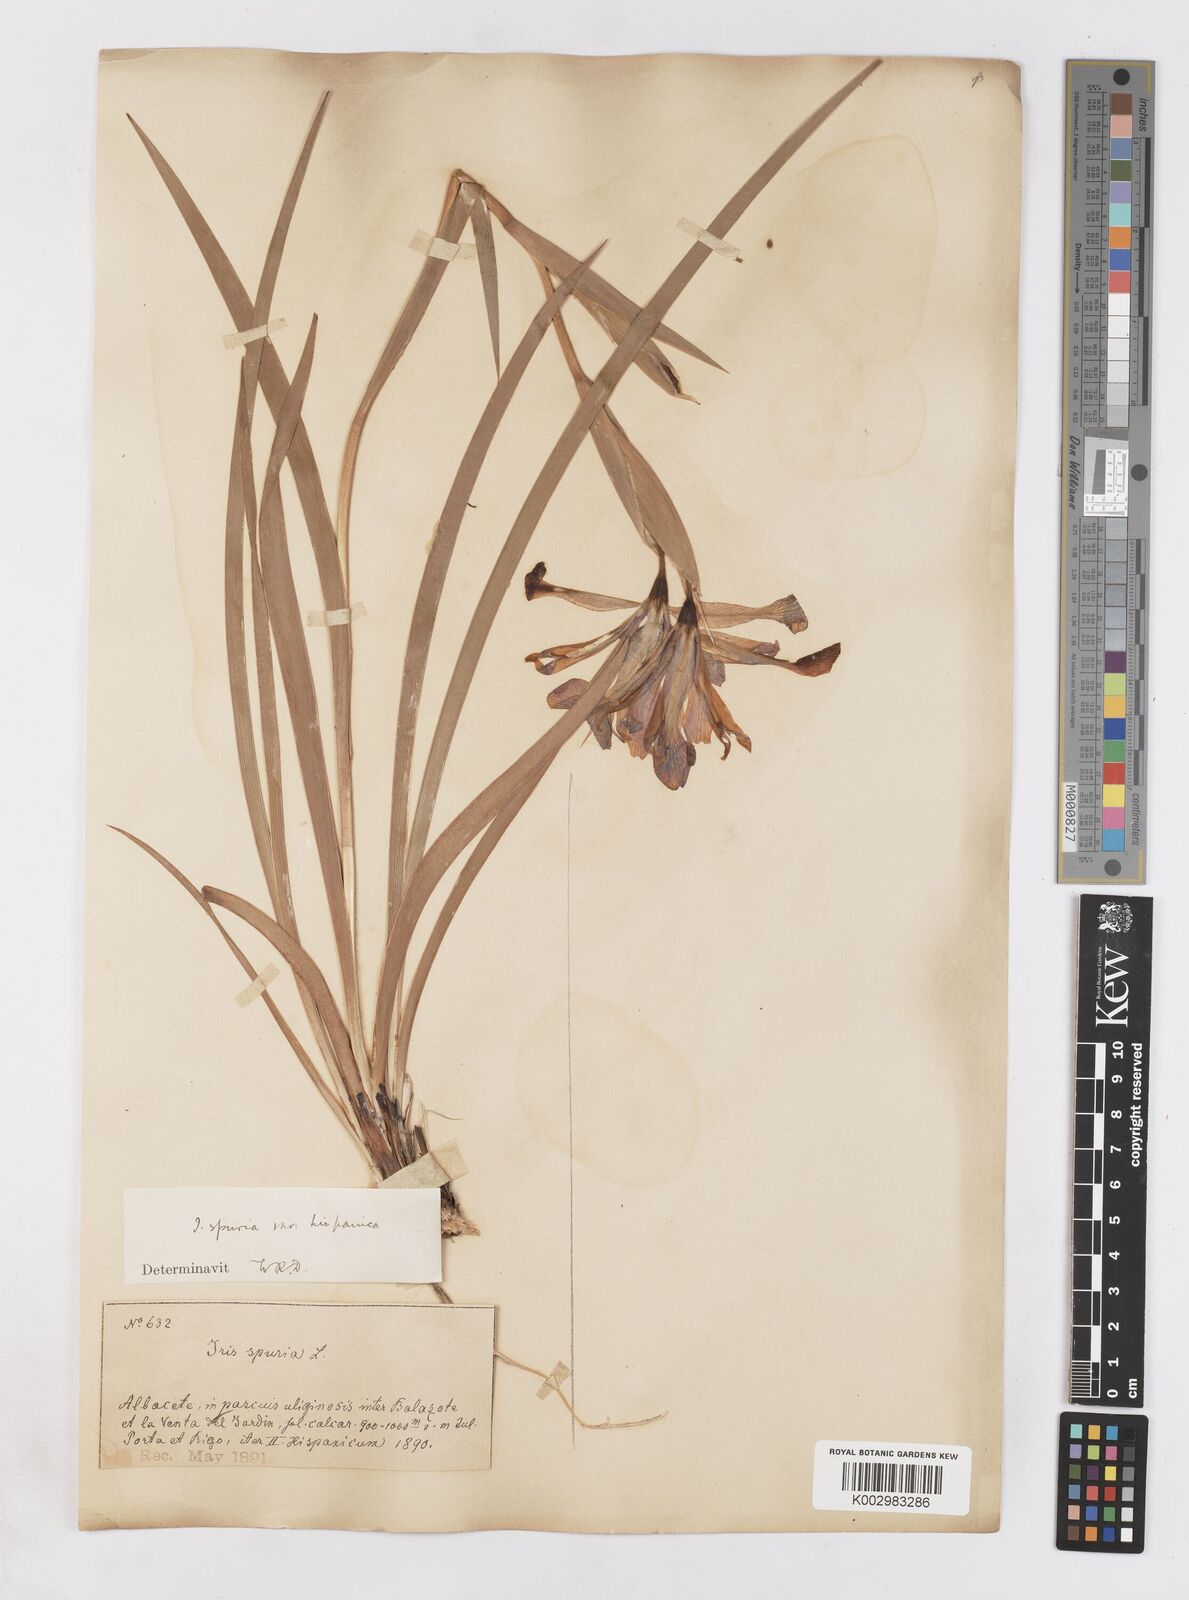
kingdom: Plantae
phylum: Tracheophyta
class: Liliopsida
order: Asparagales
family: Iridaceae
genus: Iris
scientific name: Iris spuria
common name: Blue iris
